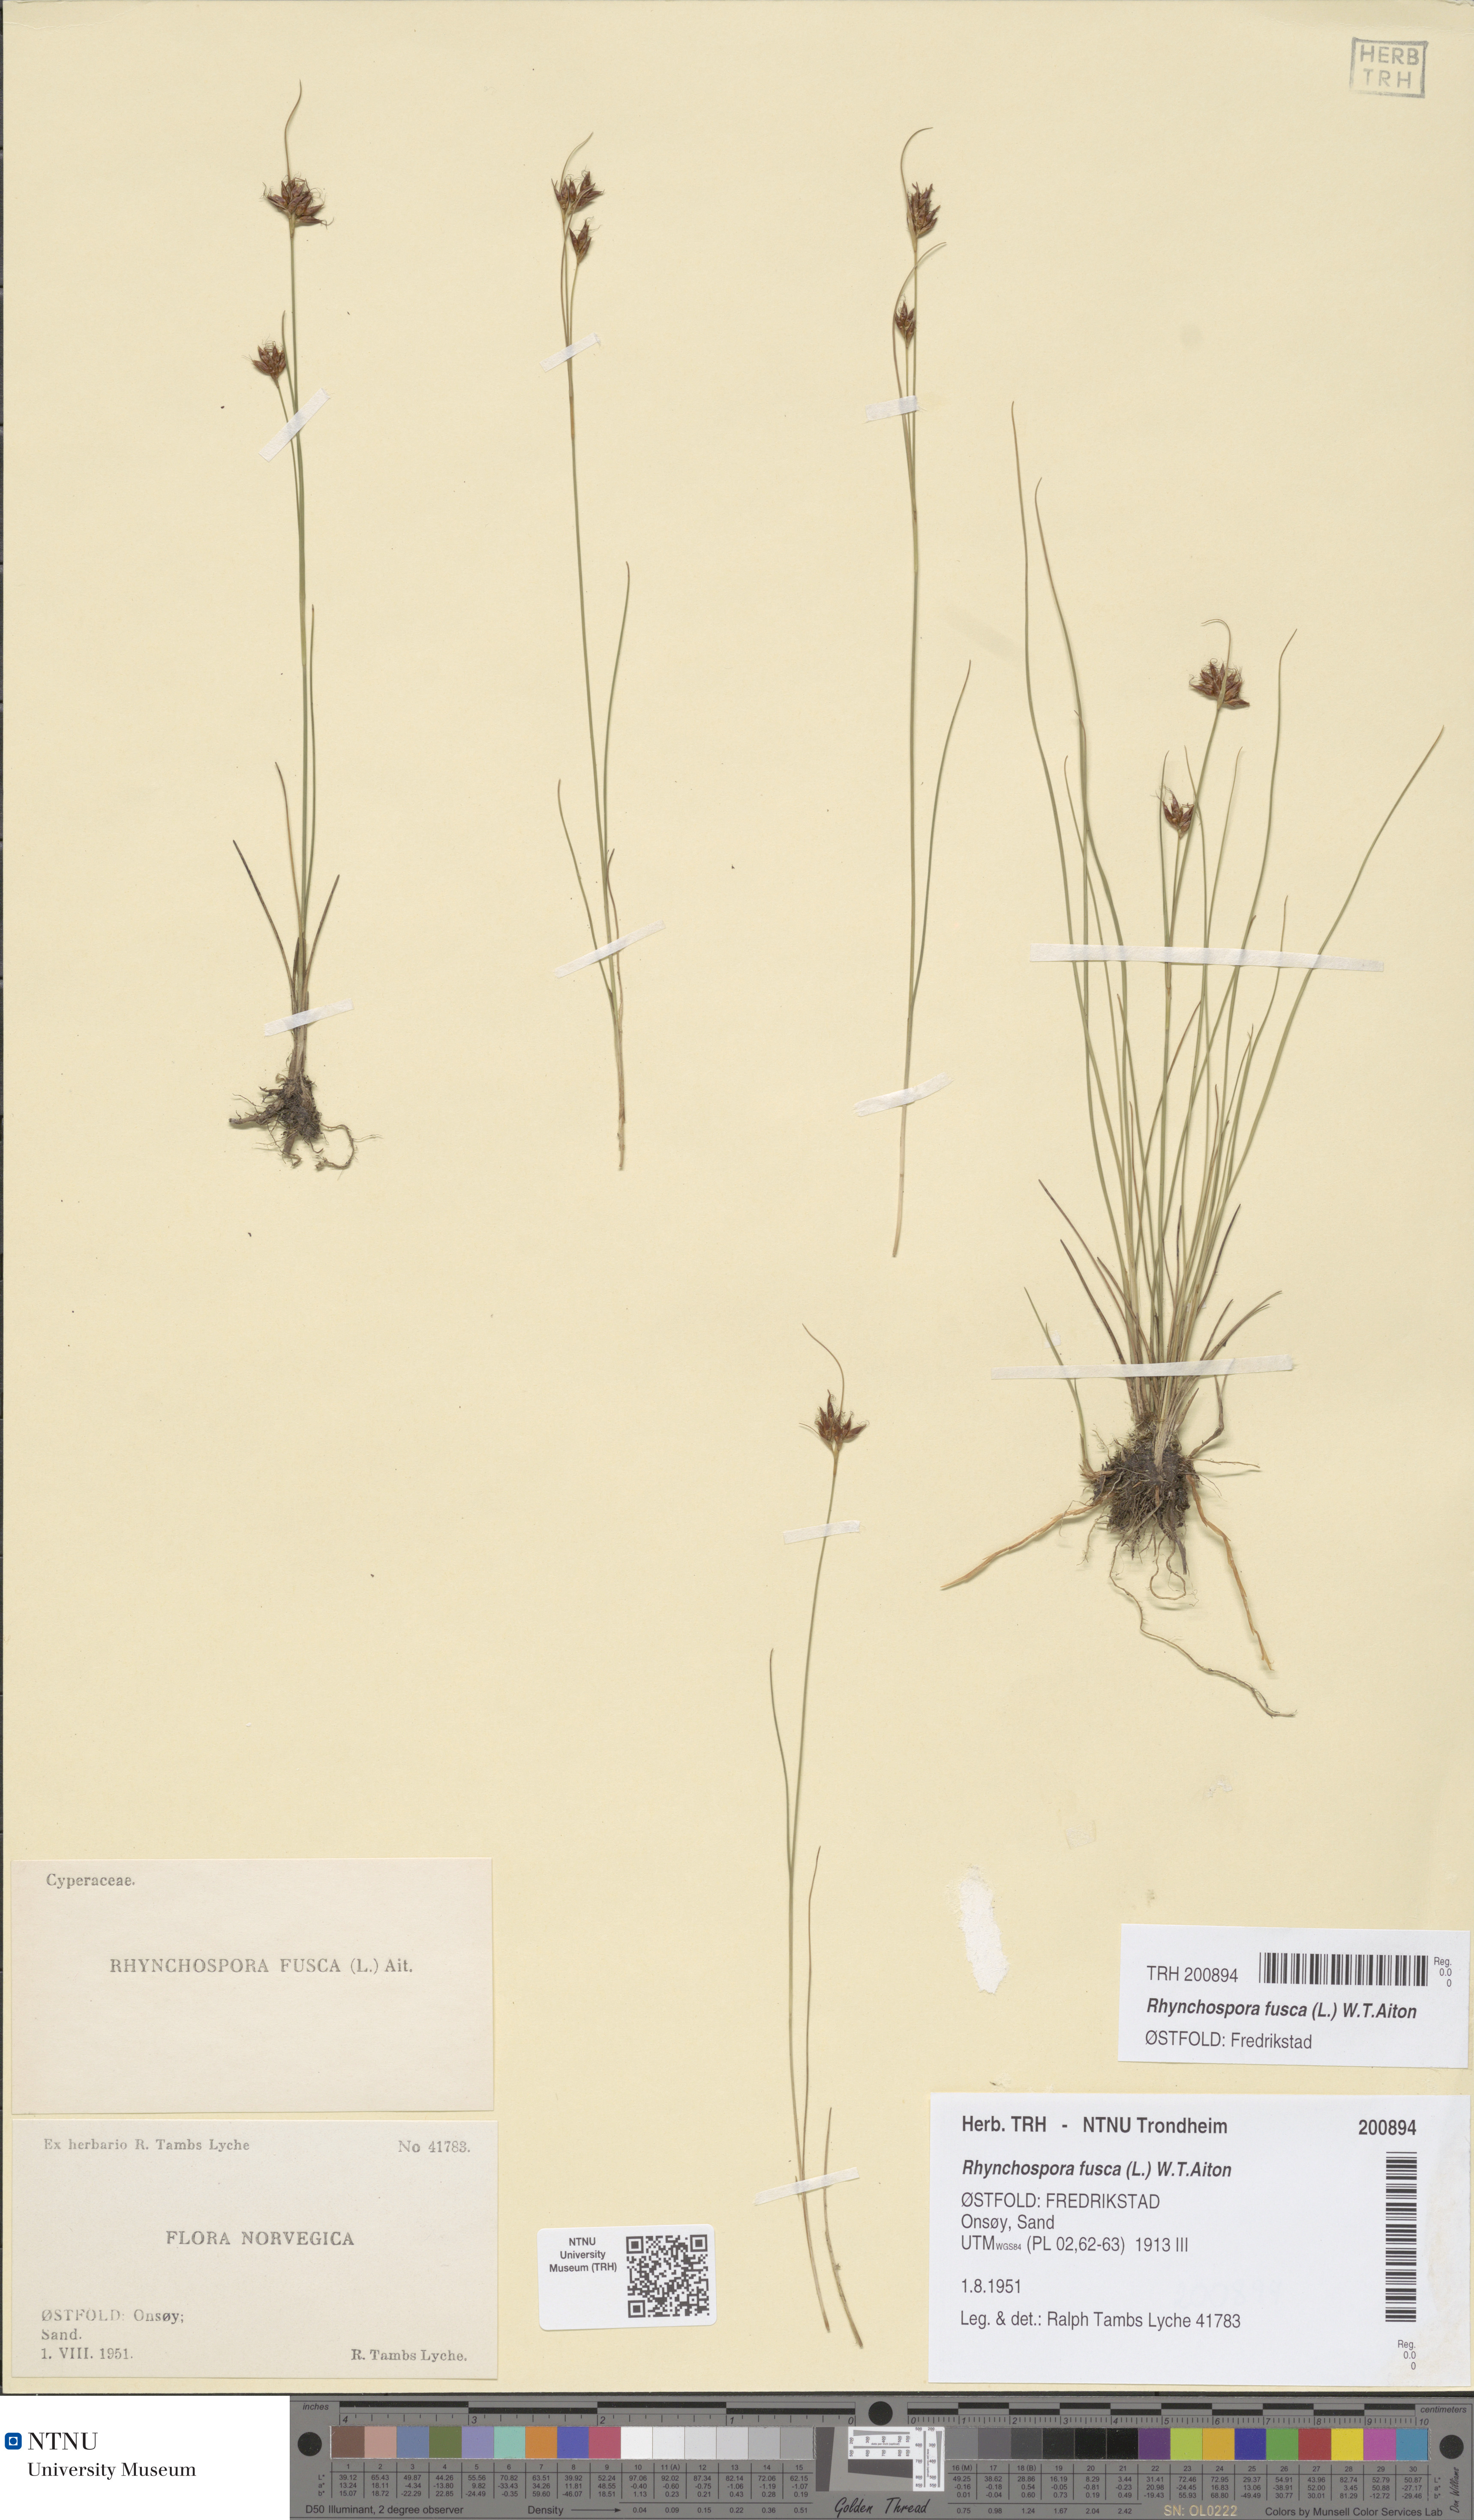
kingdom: Plantae
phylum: Tracheophyta
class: Liliopsida
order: Poales
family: Cyperaceae
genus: Rhynchospora
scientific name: Rhynchospora fusca
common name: Brown beak-sedge
